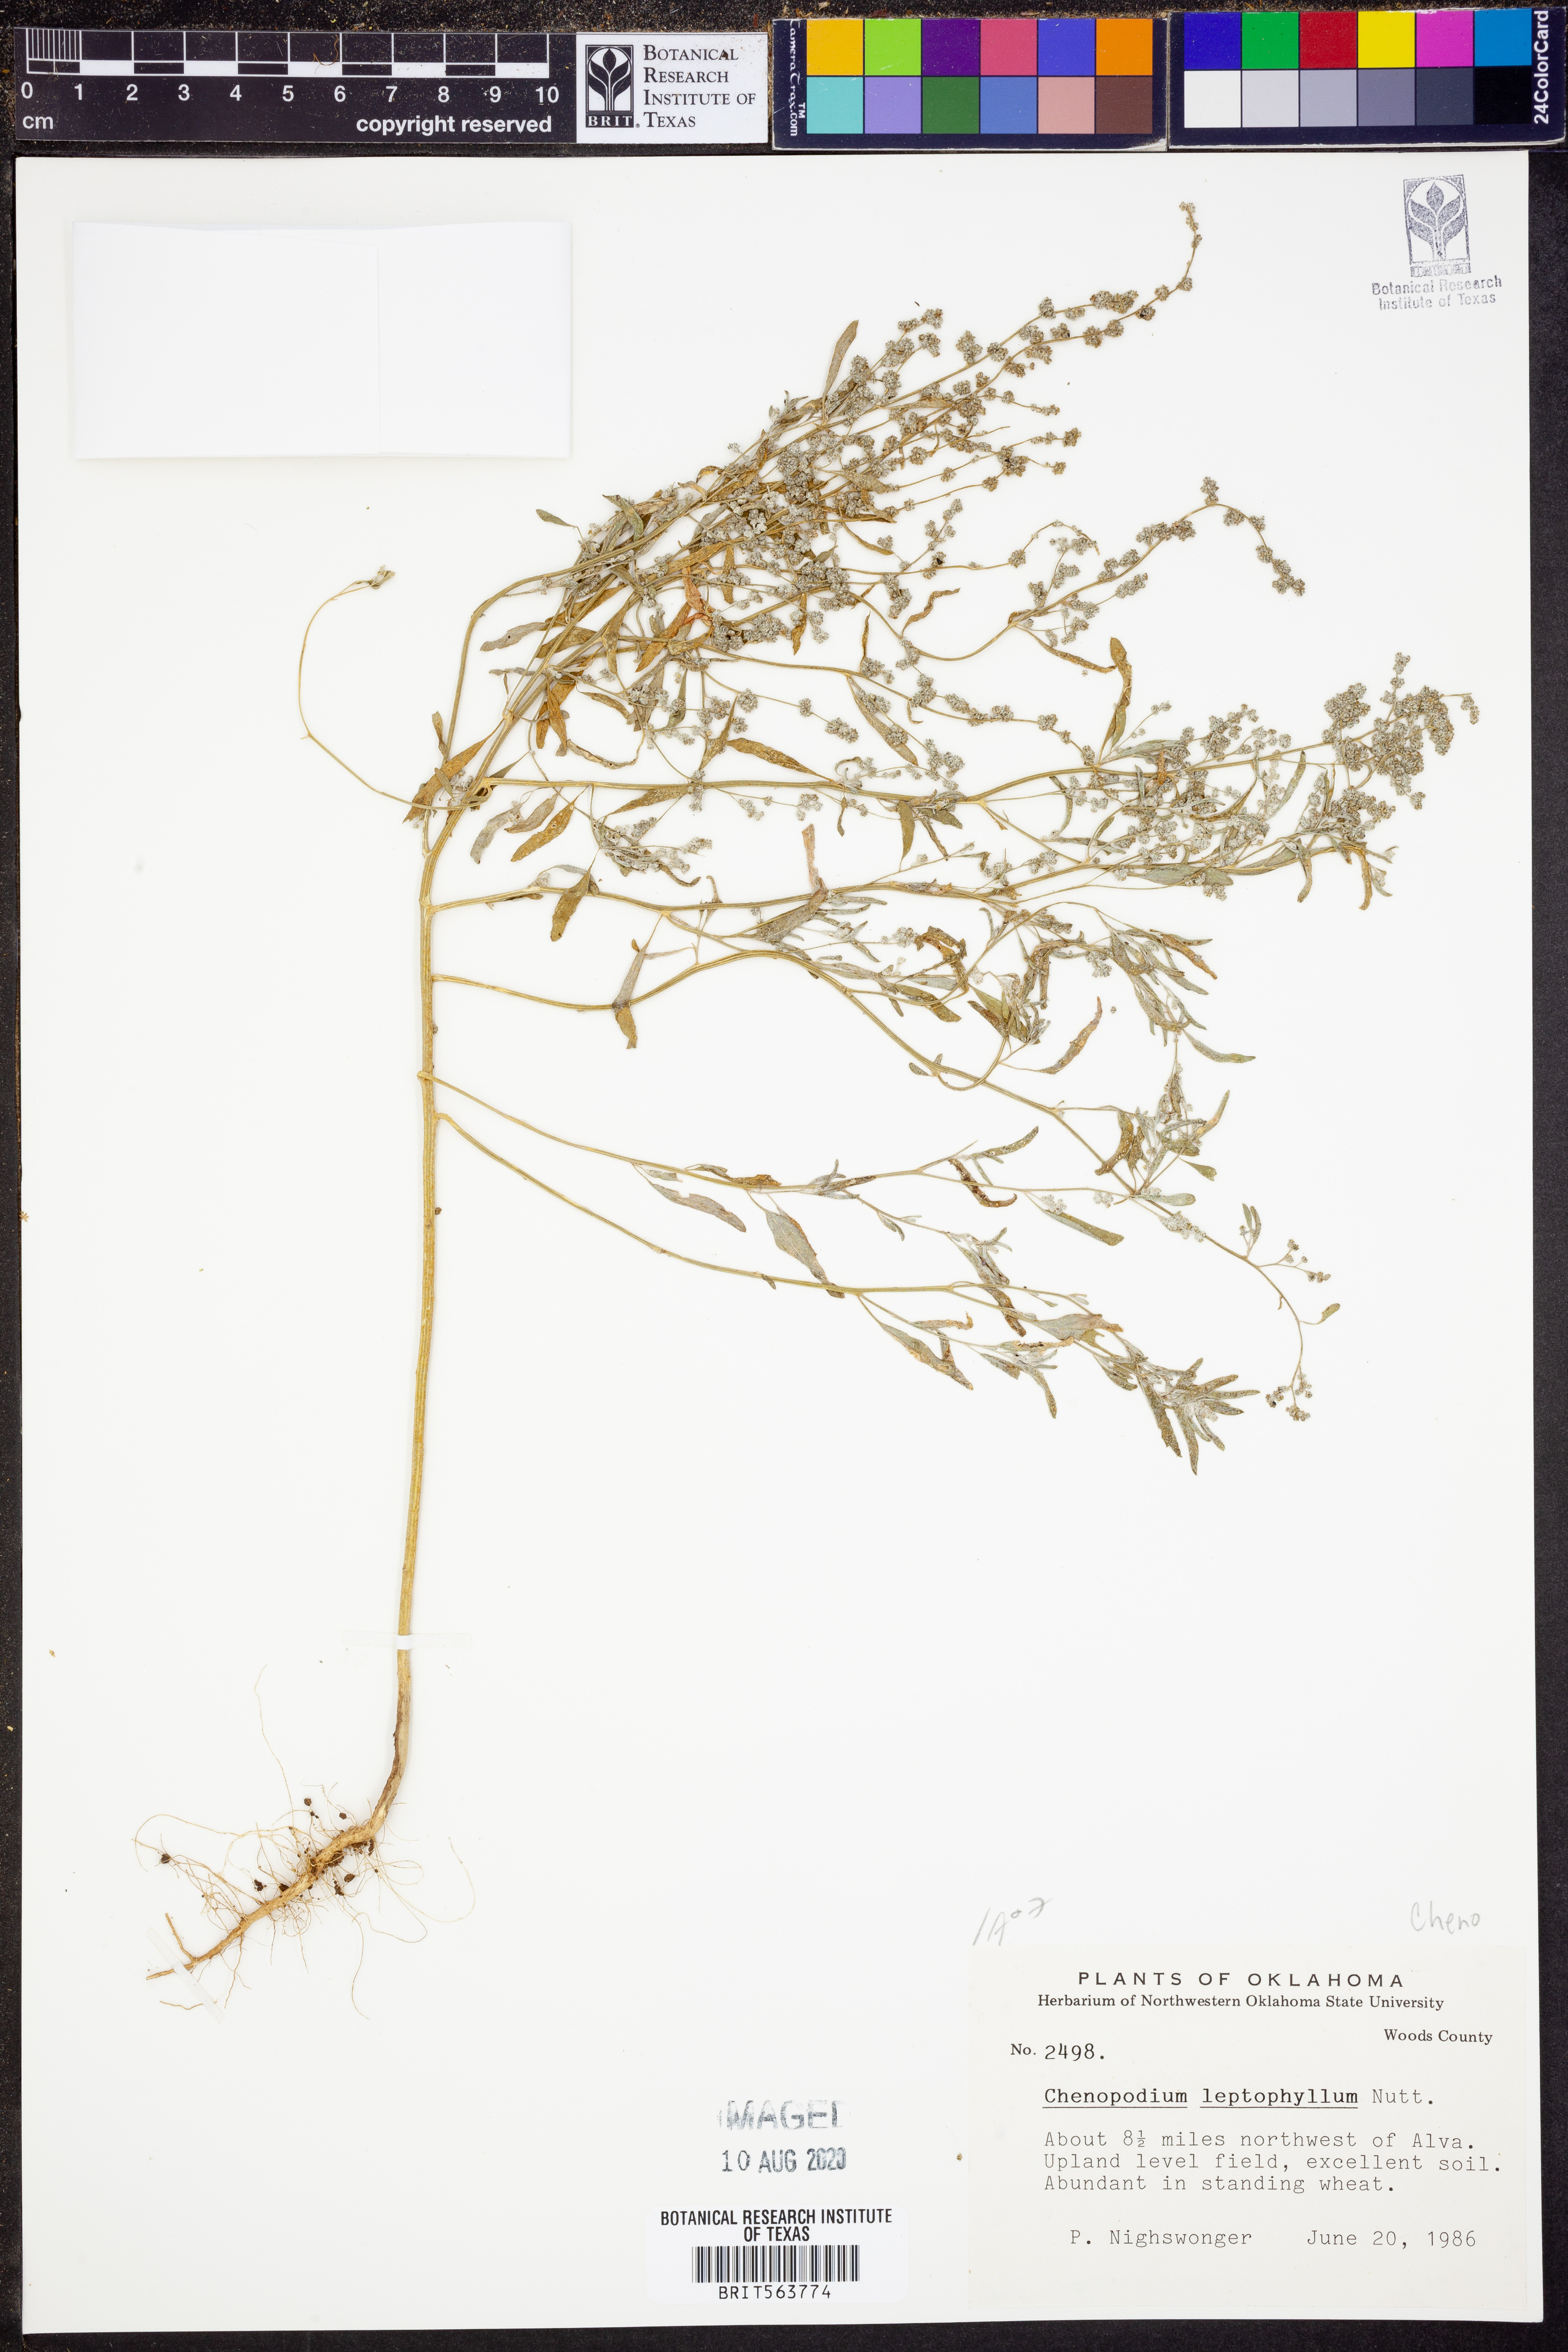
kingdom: Plantae
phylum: Tracheophyta
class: Magnoliopsida
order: Caryophyllales
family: Amaranthaceae
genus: Chenopodium
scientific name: Chenopodium leptophyllum
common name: Narrow-leaf goosefoot
